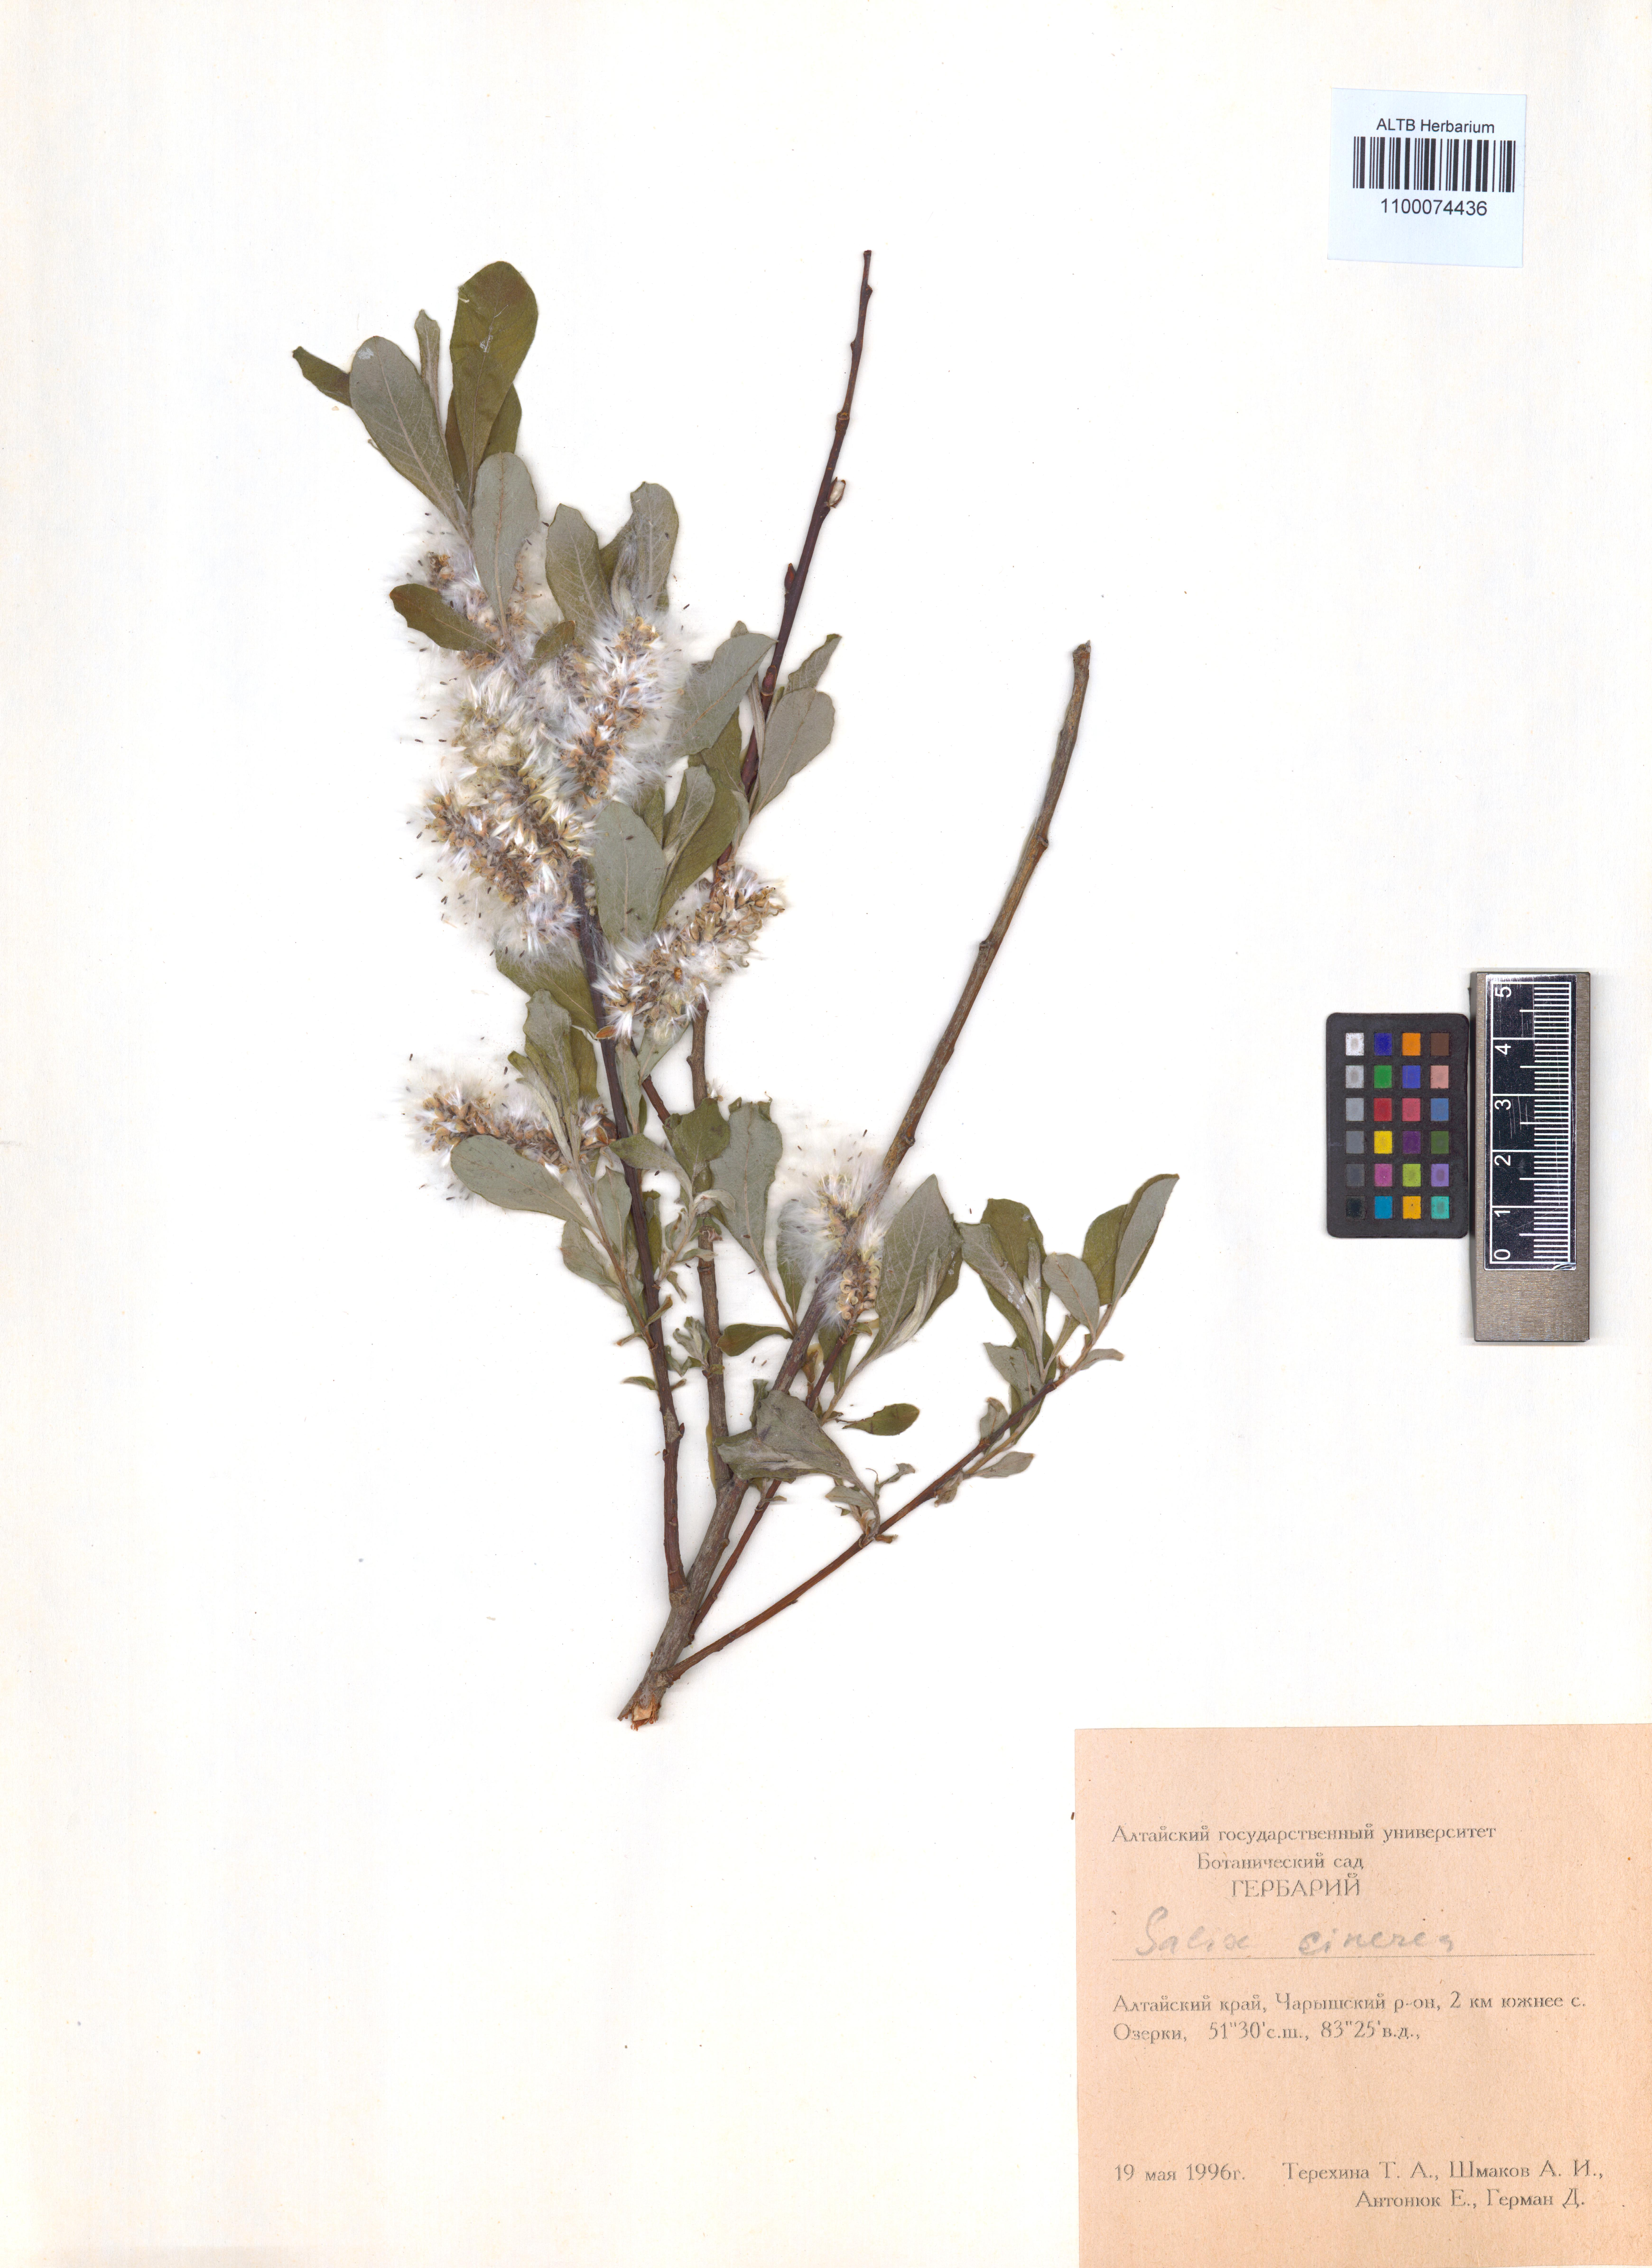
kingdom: Plantae
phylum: Tracheophyta
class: Magnoliopsida
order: Malpighiales
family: Salicaceae
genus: Salix
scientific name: Salix cinerea
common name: Common sallow
